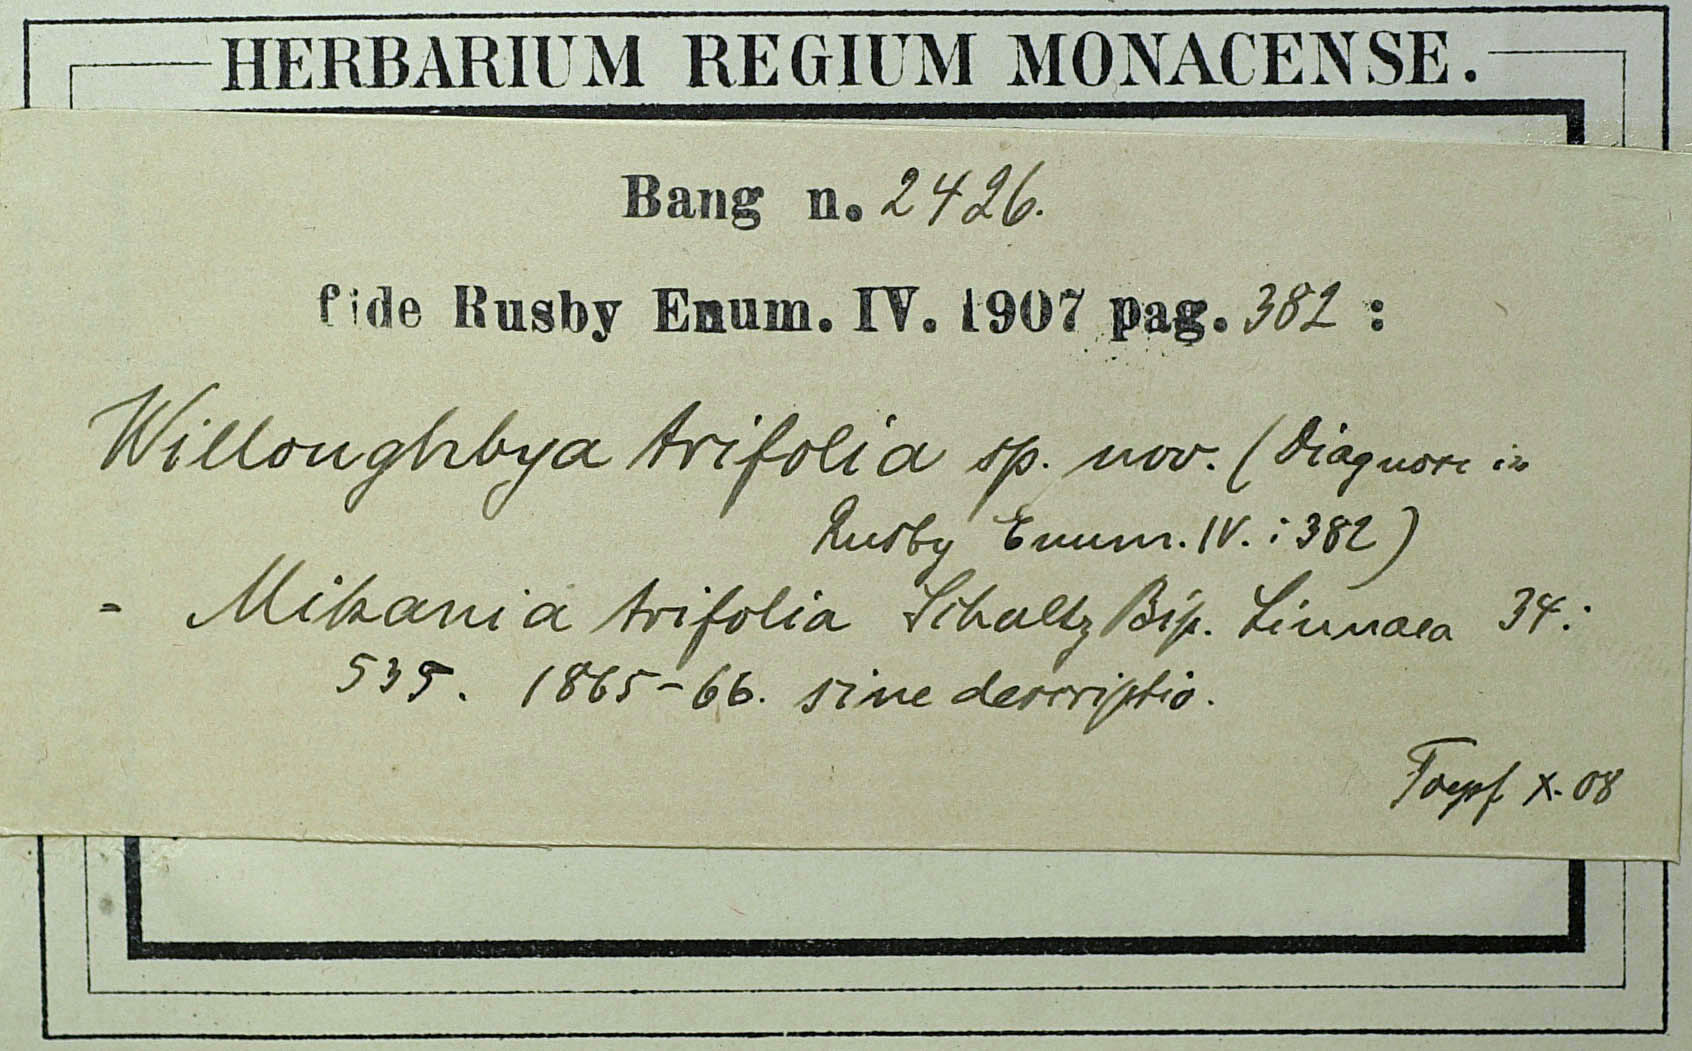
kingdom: Plantae
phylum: Tracheophyta
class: Magnoliopsida
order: Asterales
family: Asteraceae
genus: Mikania
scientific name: Mikania ternata
